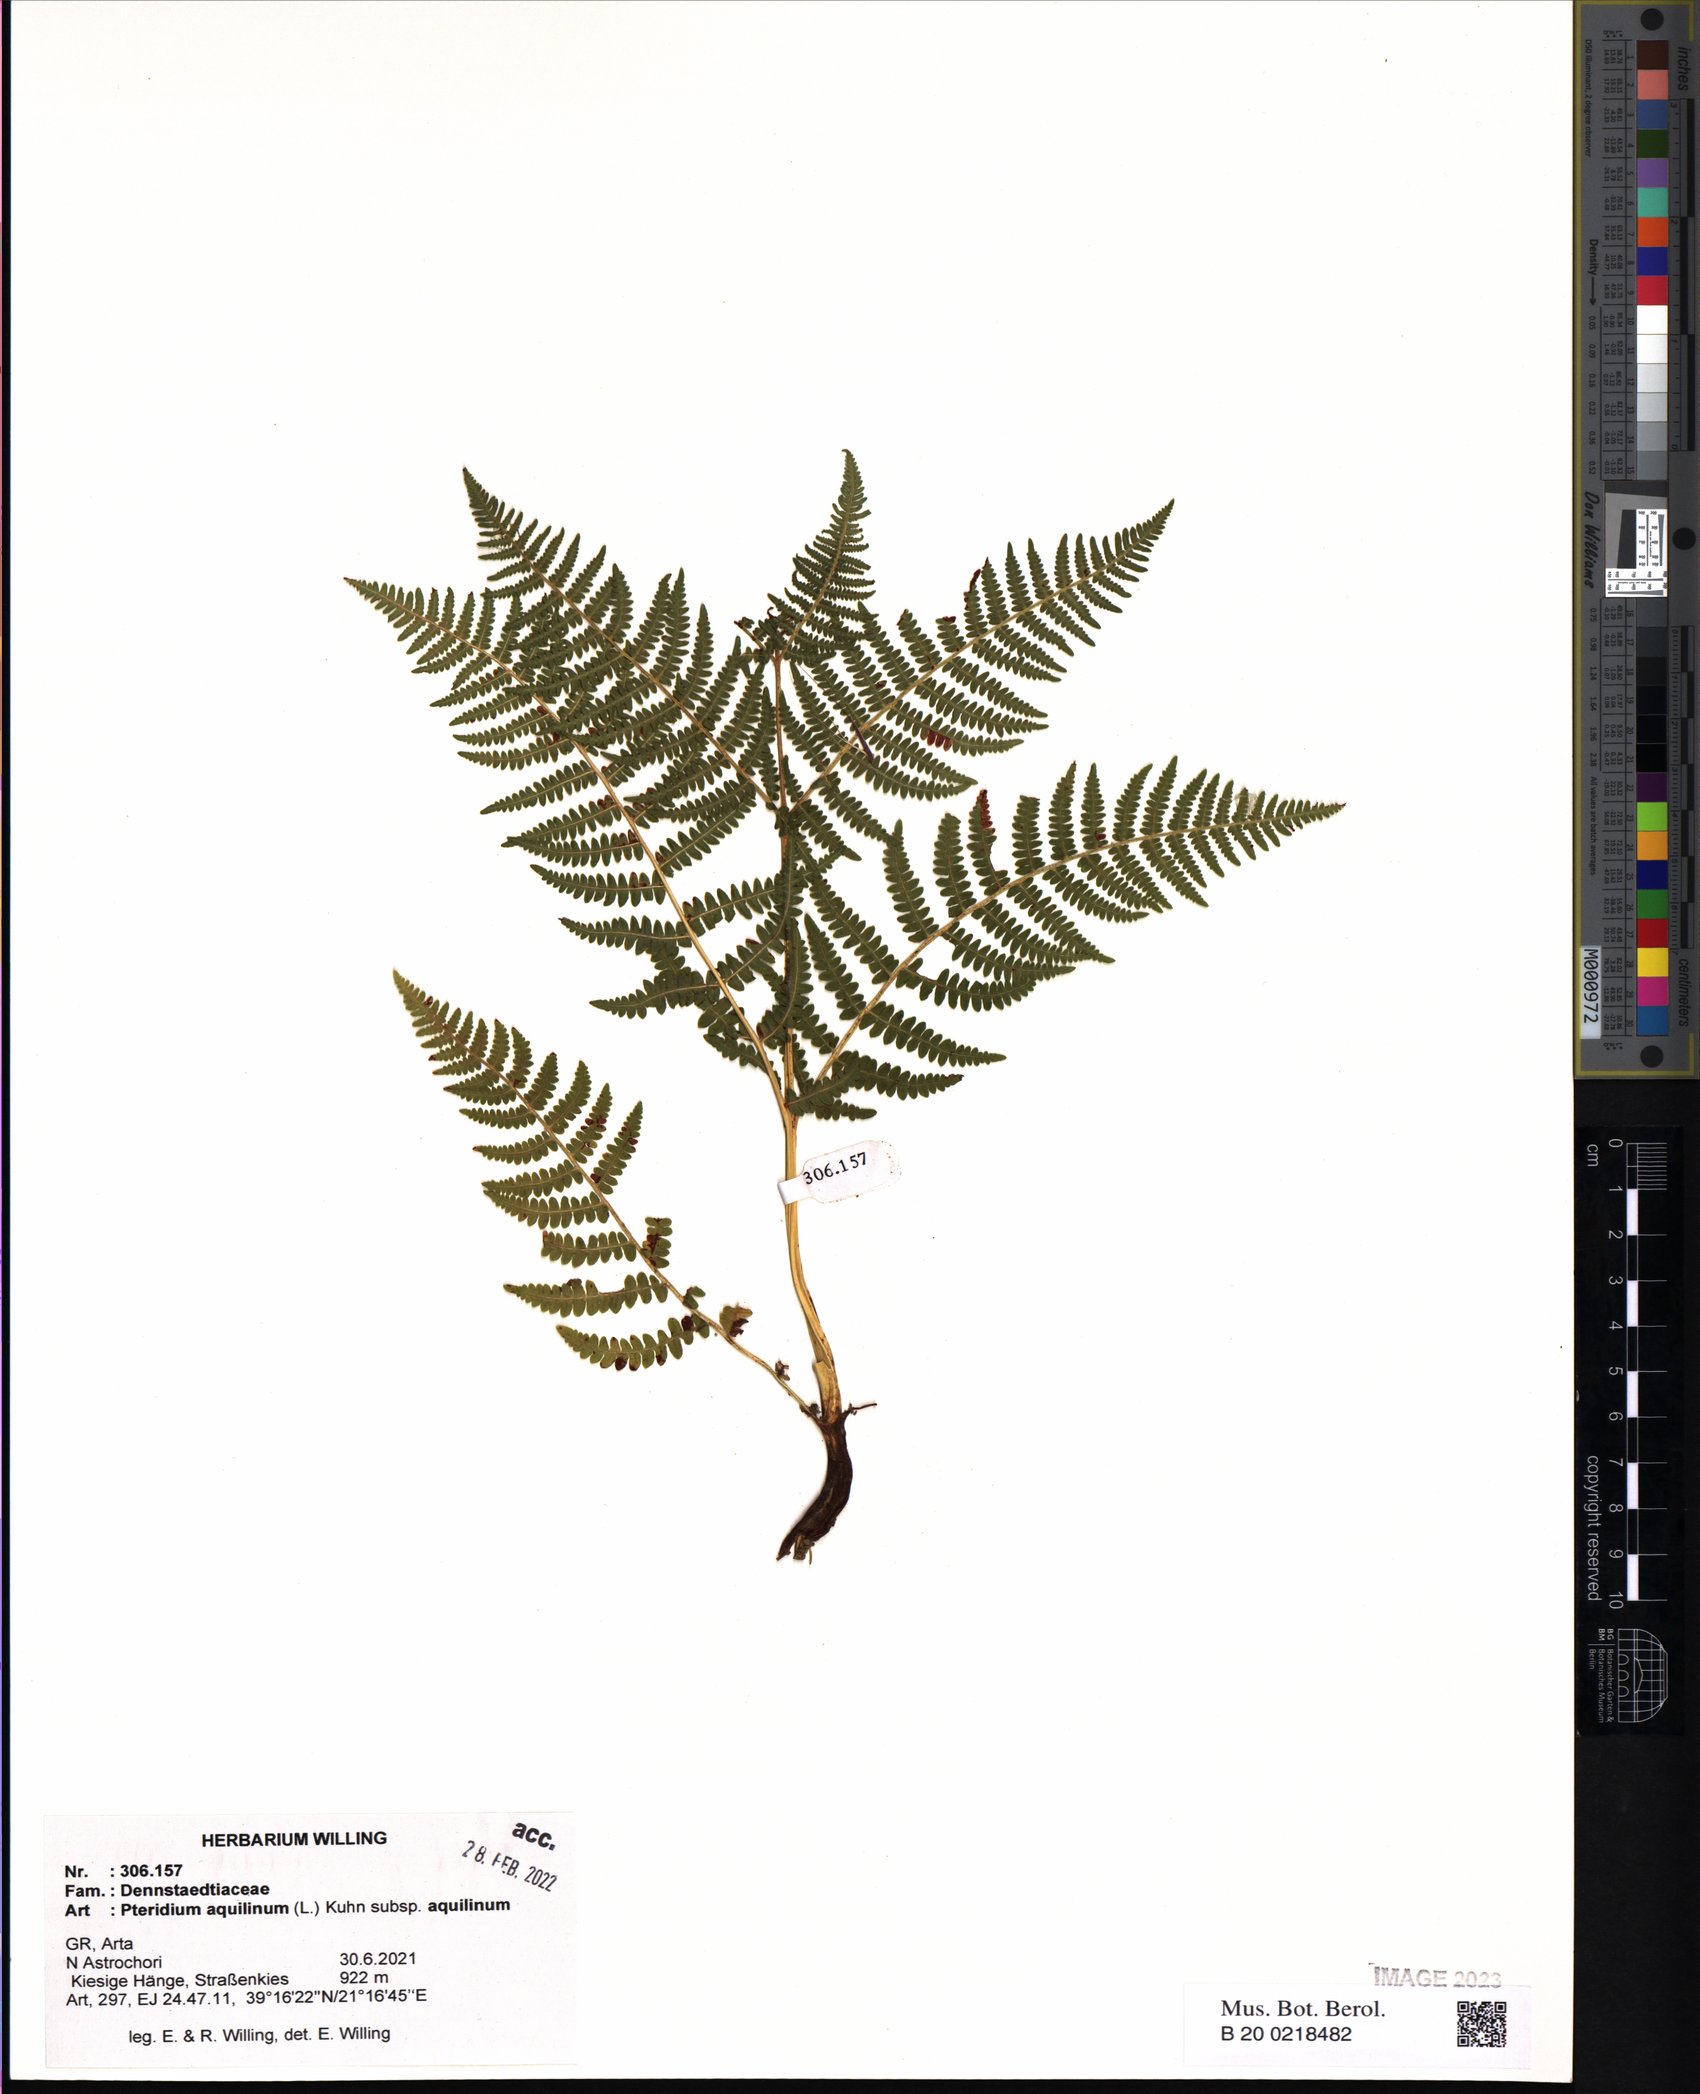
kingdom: Plantae
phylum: Tracheophyta
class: Polypodiopsida
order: Polypodiales
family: Dennstaedtiaceae
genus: Pteridium
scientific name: Pteridium aquilinum
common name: Bracken
